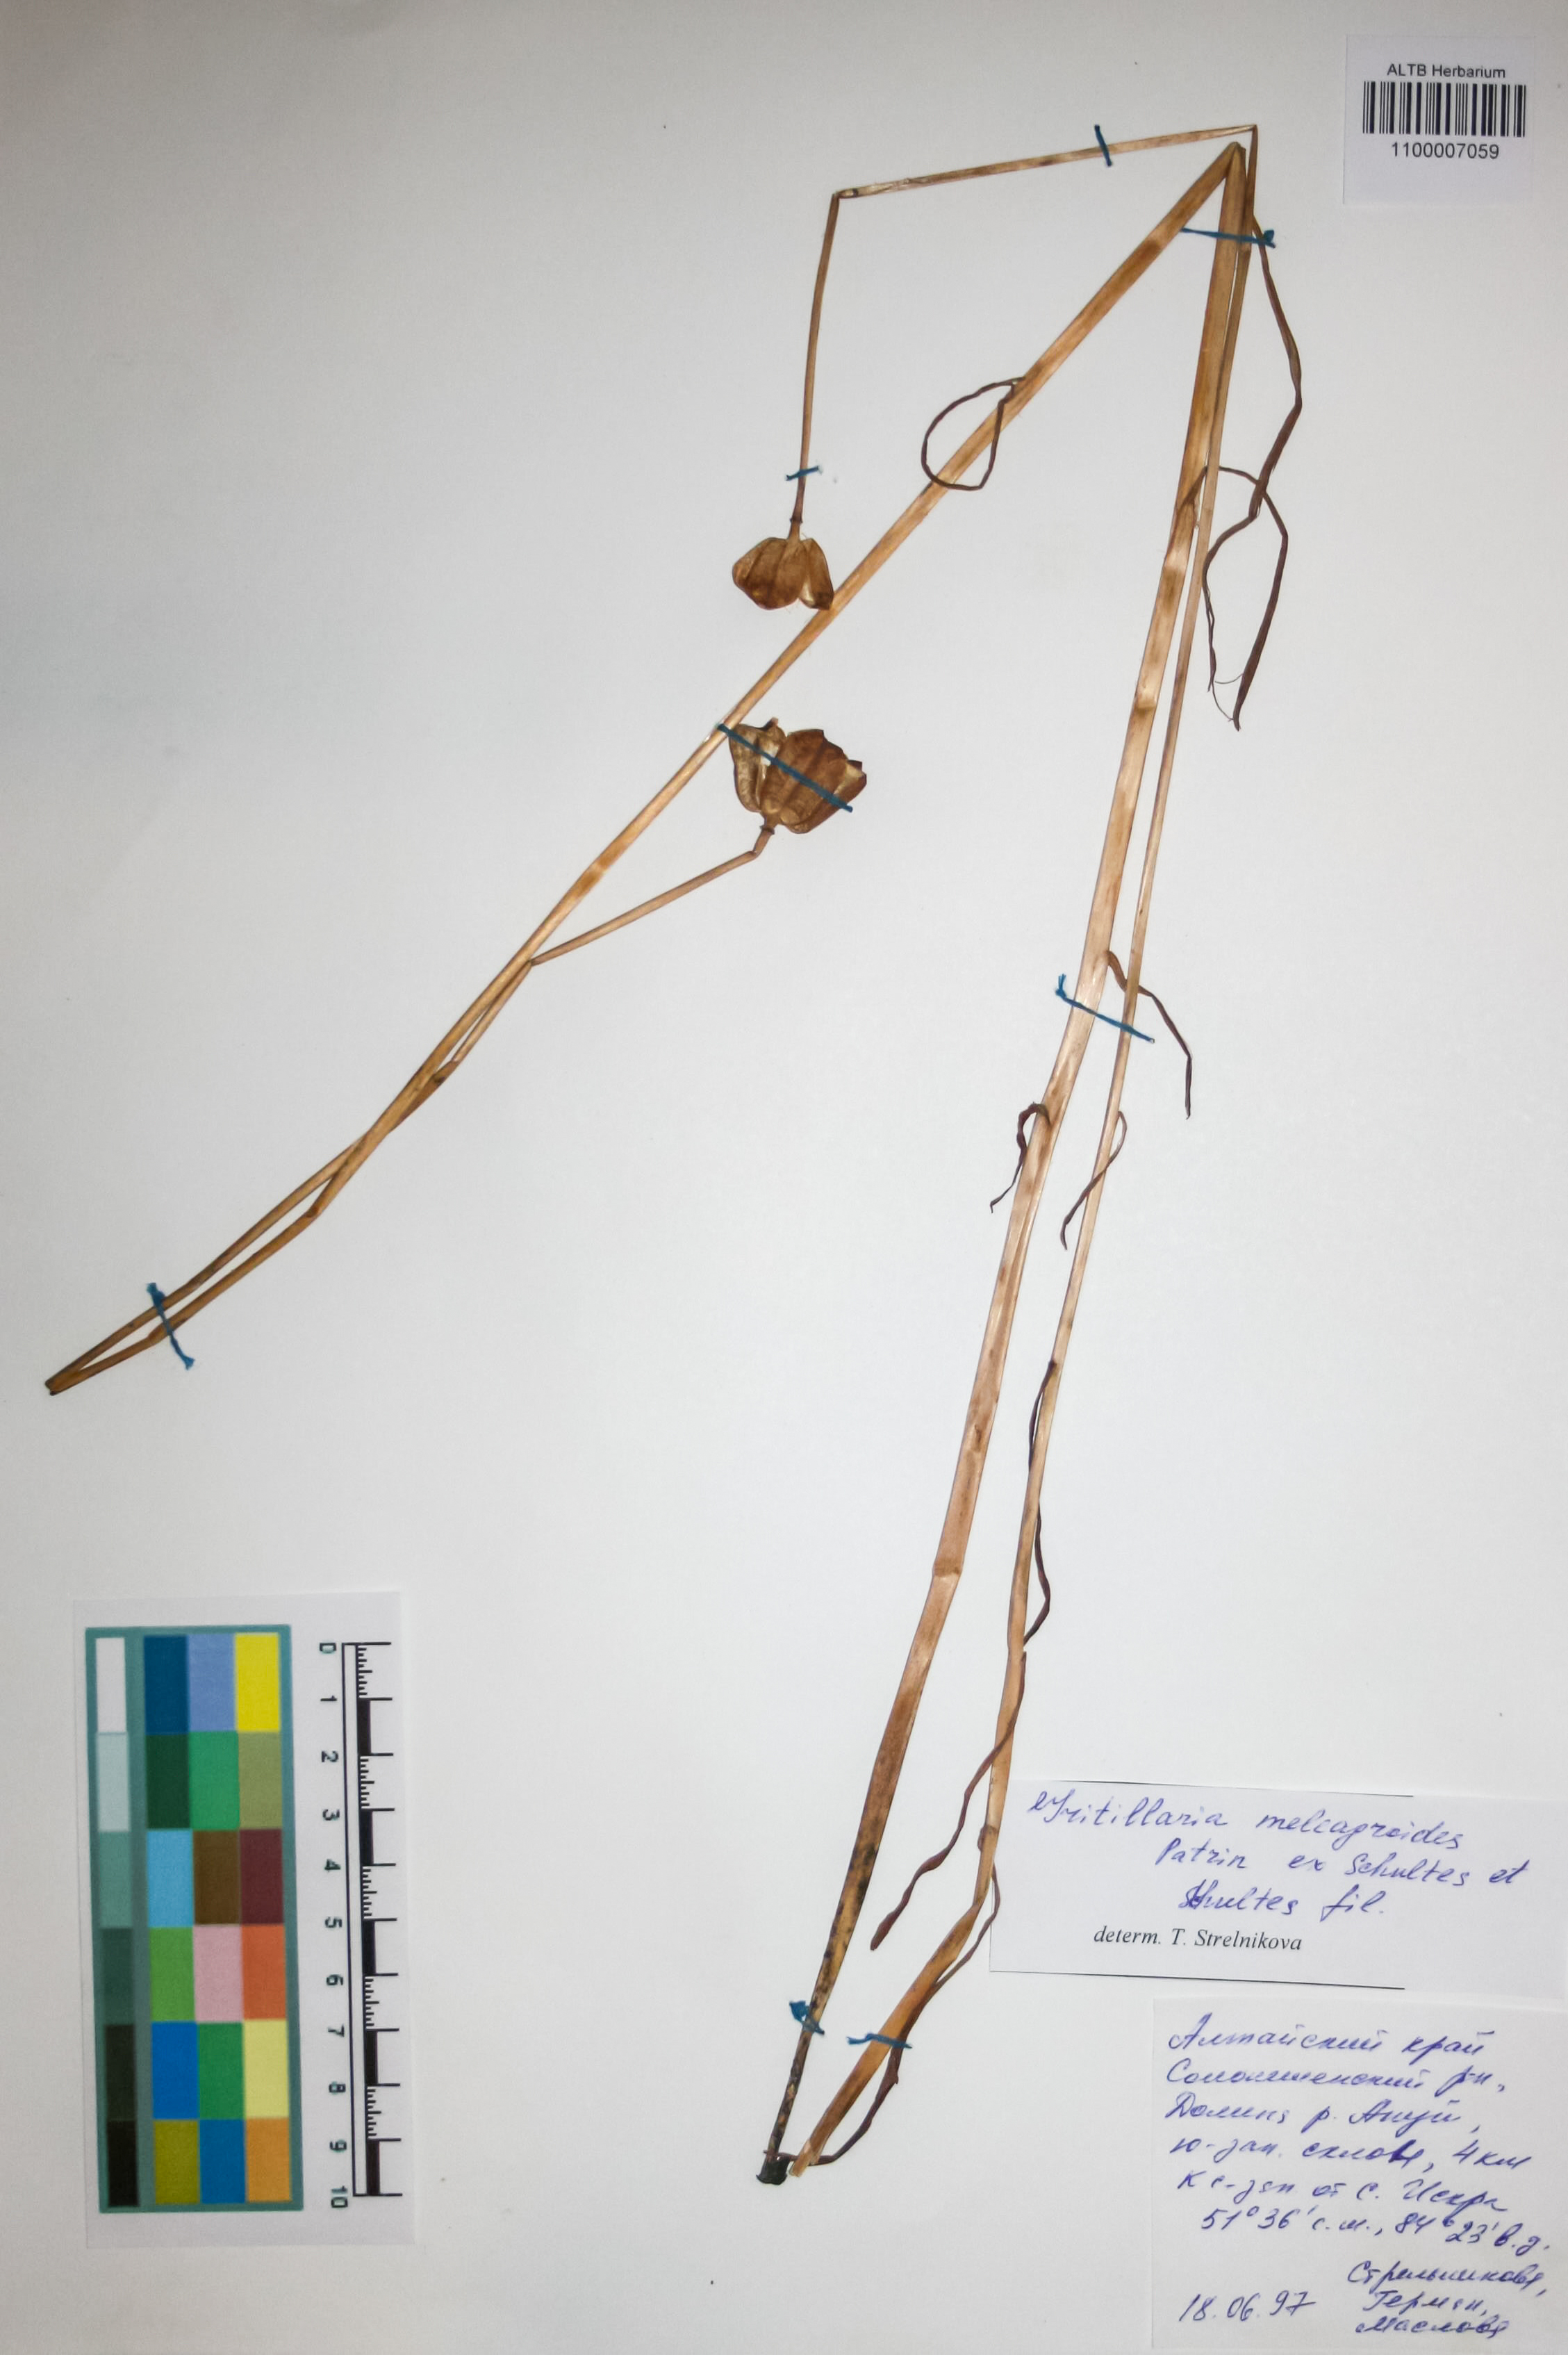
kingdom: Plantae
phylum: Tracheophyta
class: Liliopsida
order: Liliales
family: Liliaceae
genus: Fritillaria
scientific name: Fritillaria meleagroides
